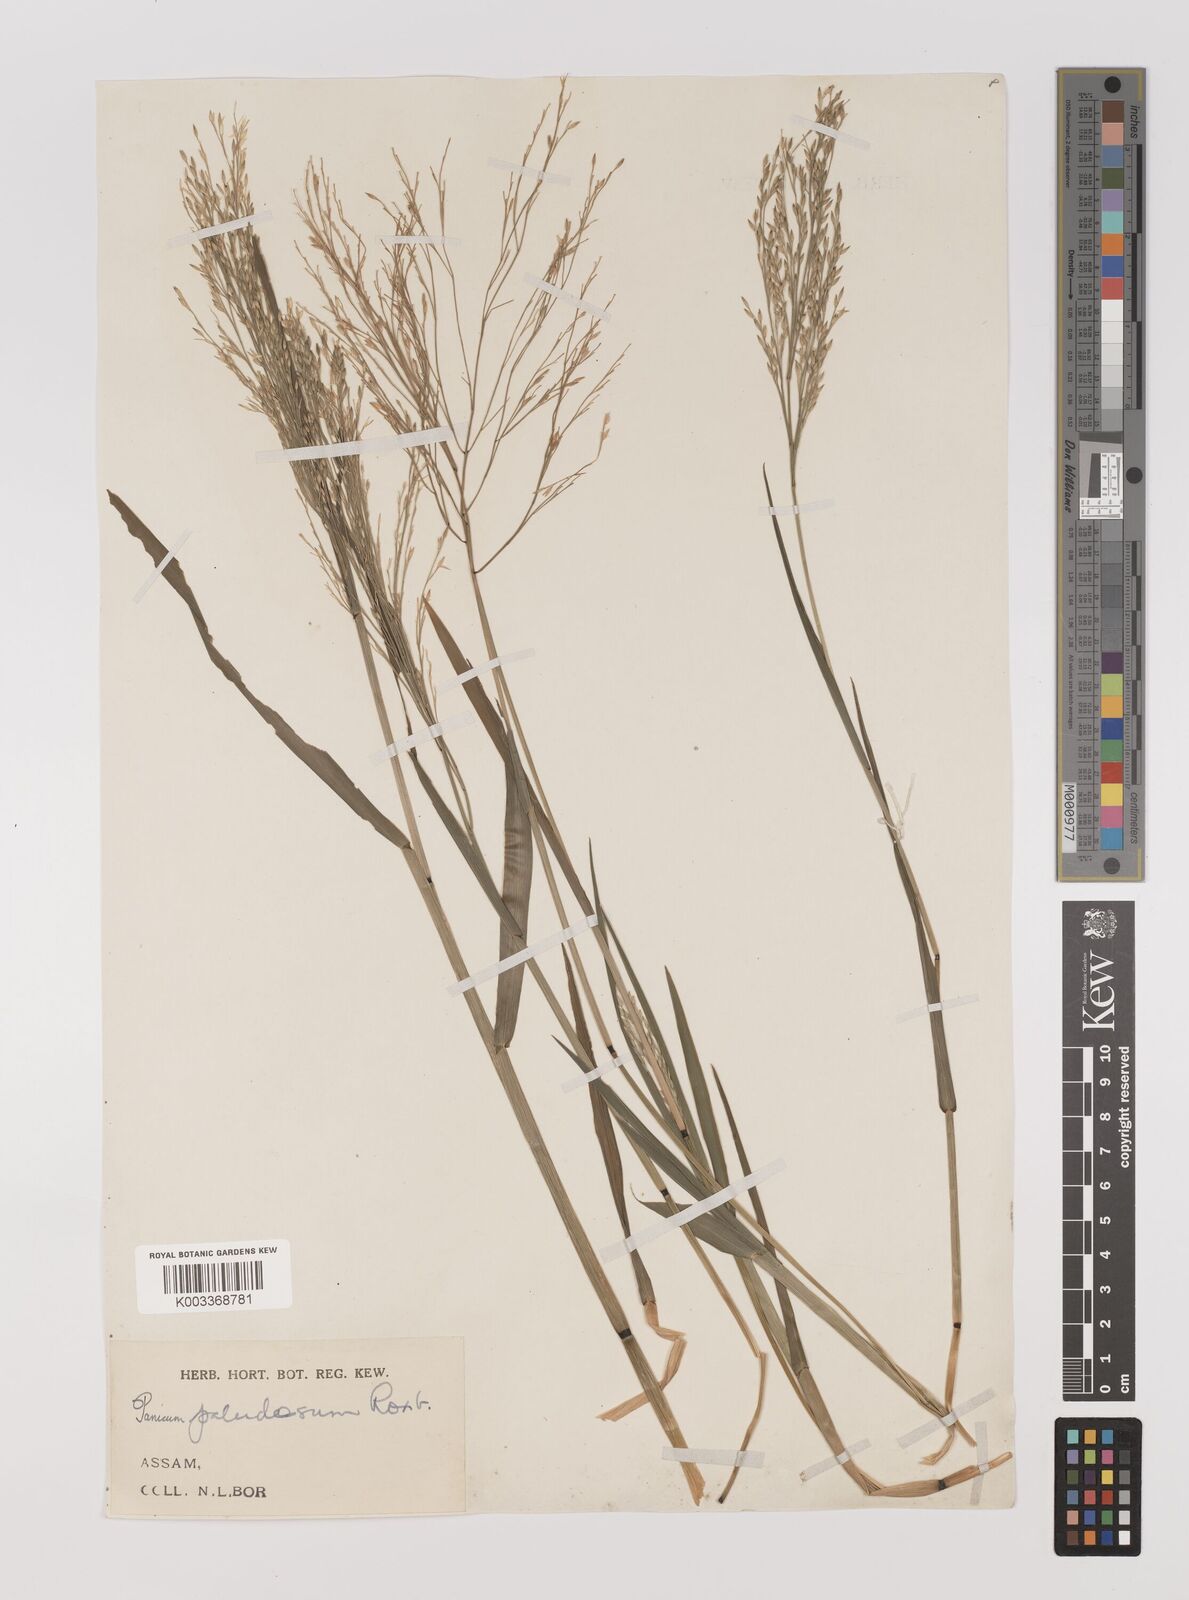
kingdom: Plantae
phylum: Tracheophyta
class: Liliopsida
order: Poales
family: Poaceae
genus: Louisiella
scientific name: Louisiella paludosa
